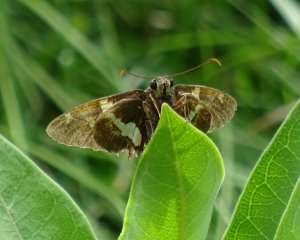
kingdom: Animalia
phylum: Arthropoda
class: Insecta
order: Lepidoptera
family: Hesperiidae
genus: Epargyreus
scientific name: Epargyreus clarus
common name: Silver-spotted Skipper
